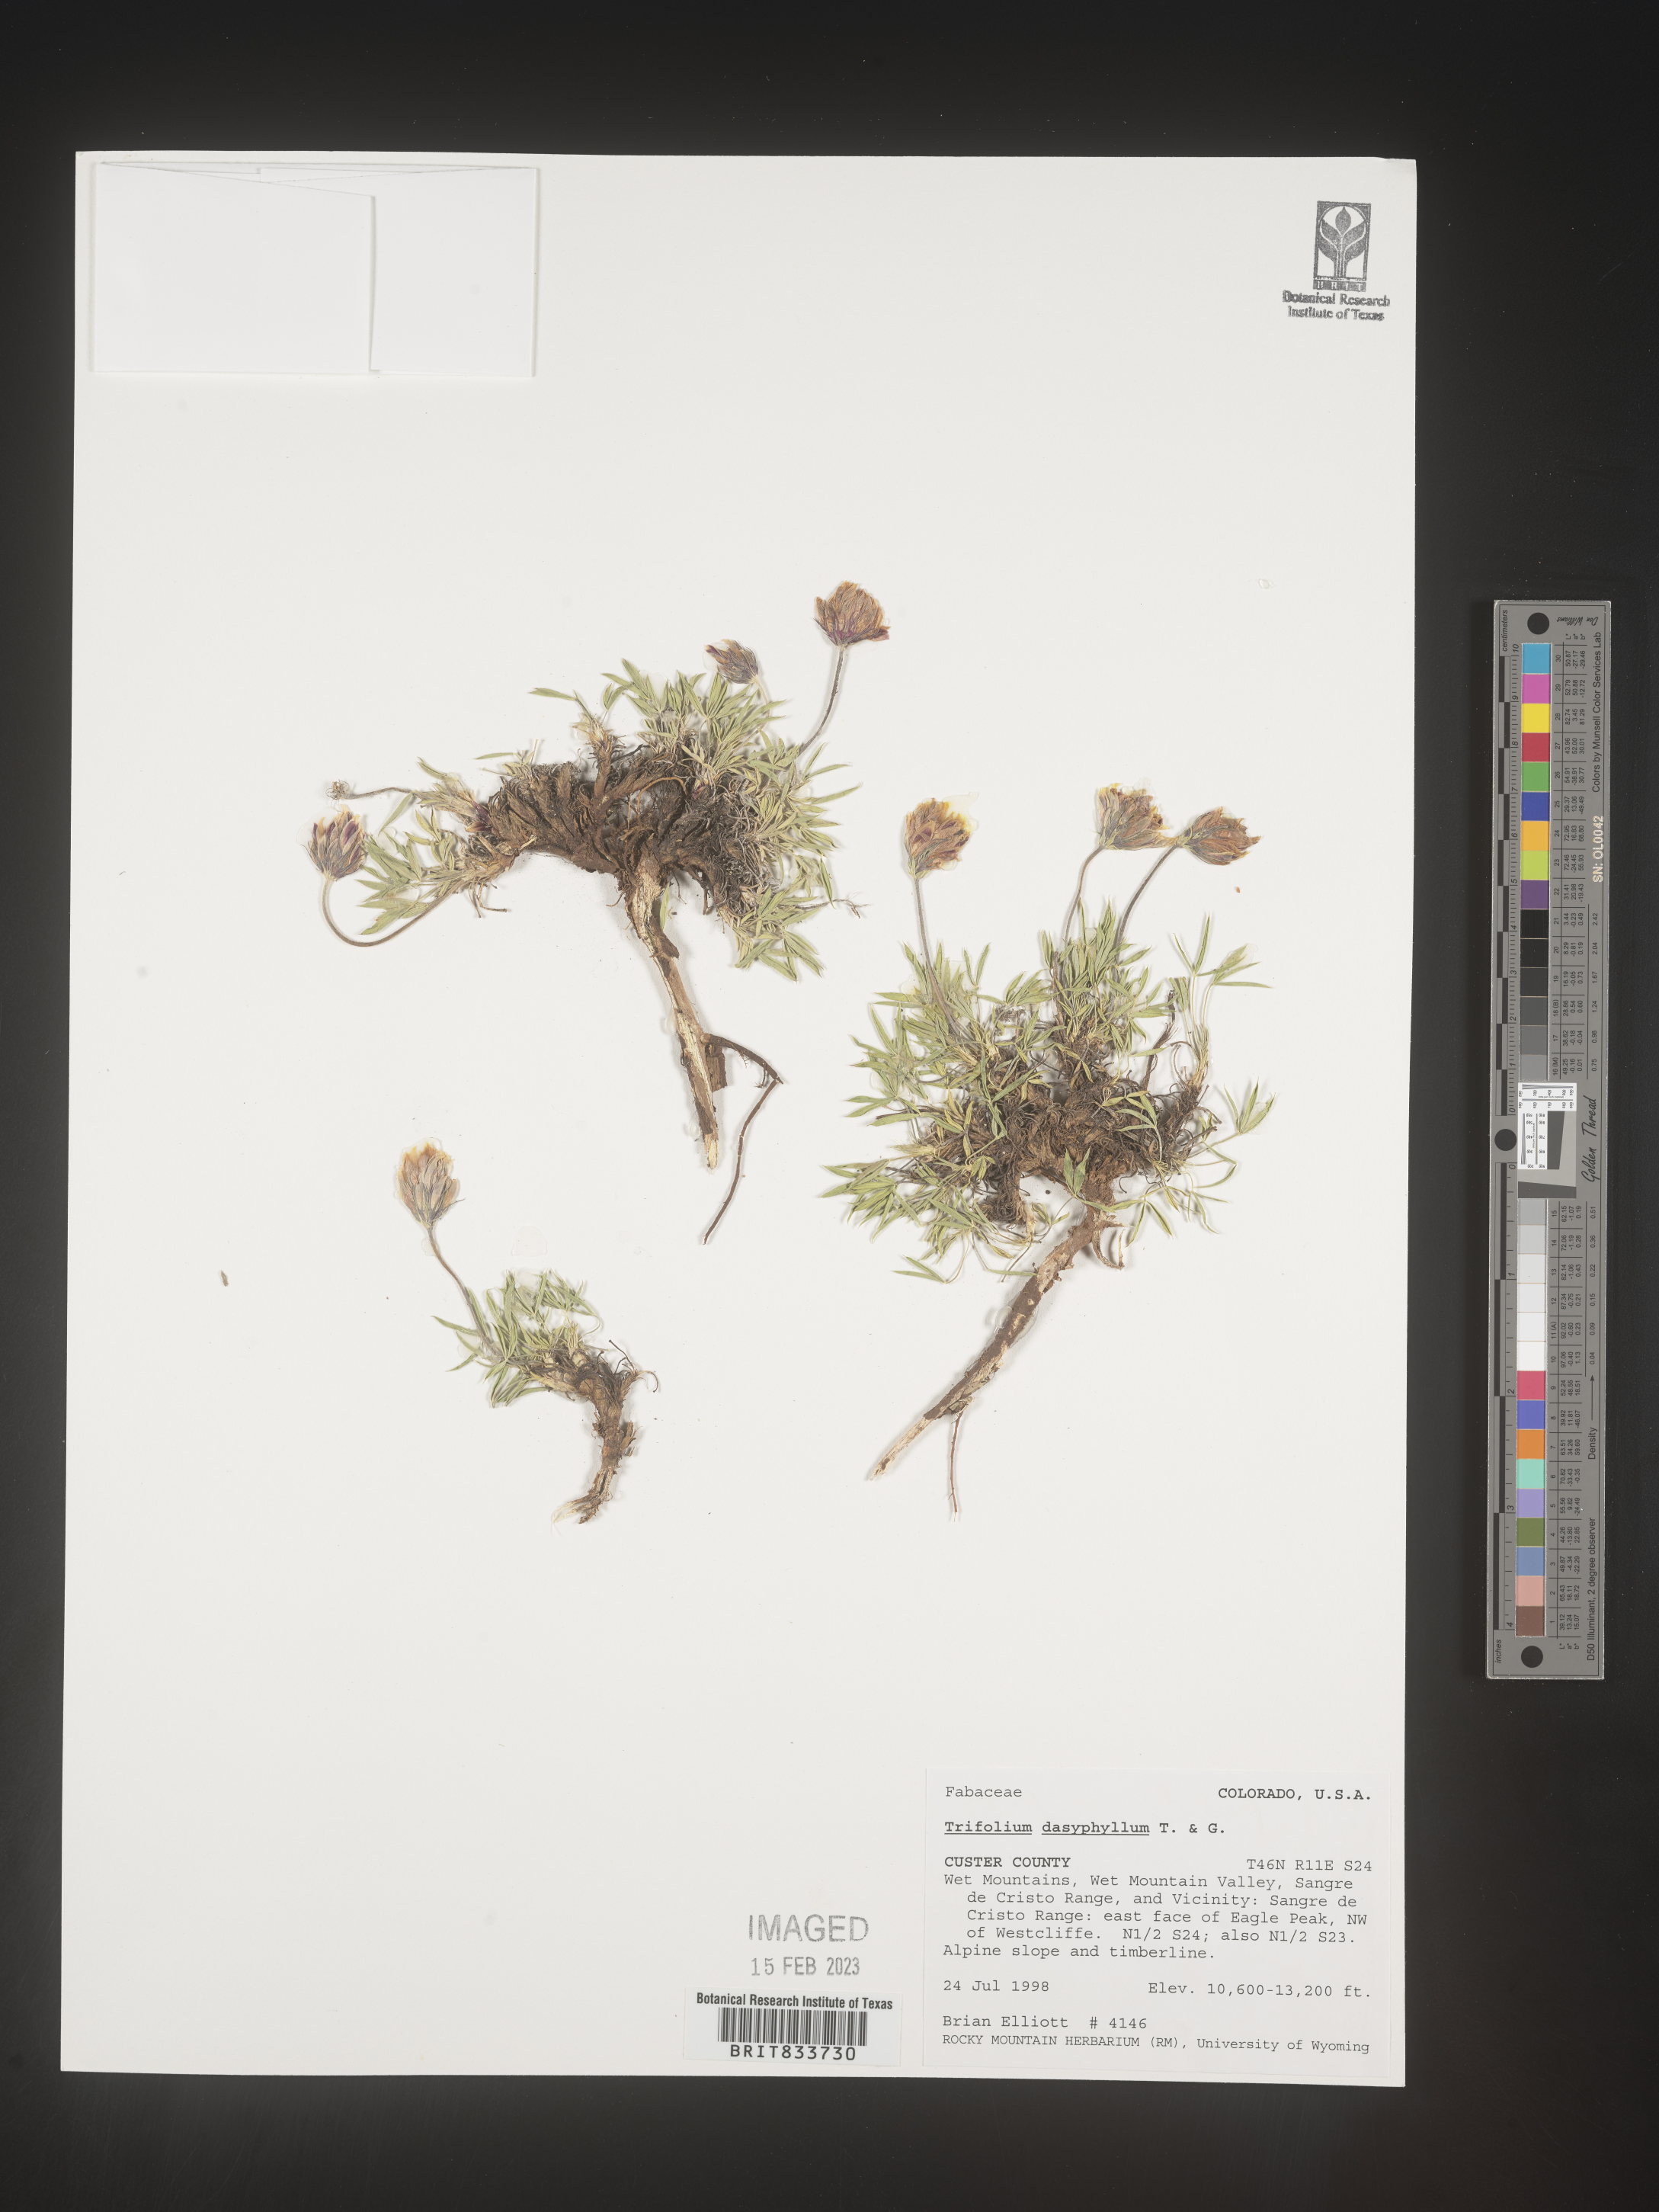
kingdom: Plantae
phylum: Tracheophyta
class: Magnoliopsida
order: Fabales
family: Fabaceae
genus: Trifolium
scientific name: Trifolium
